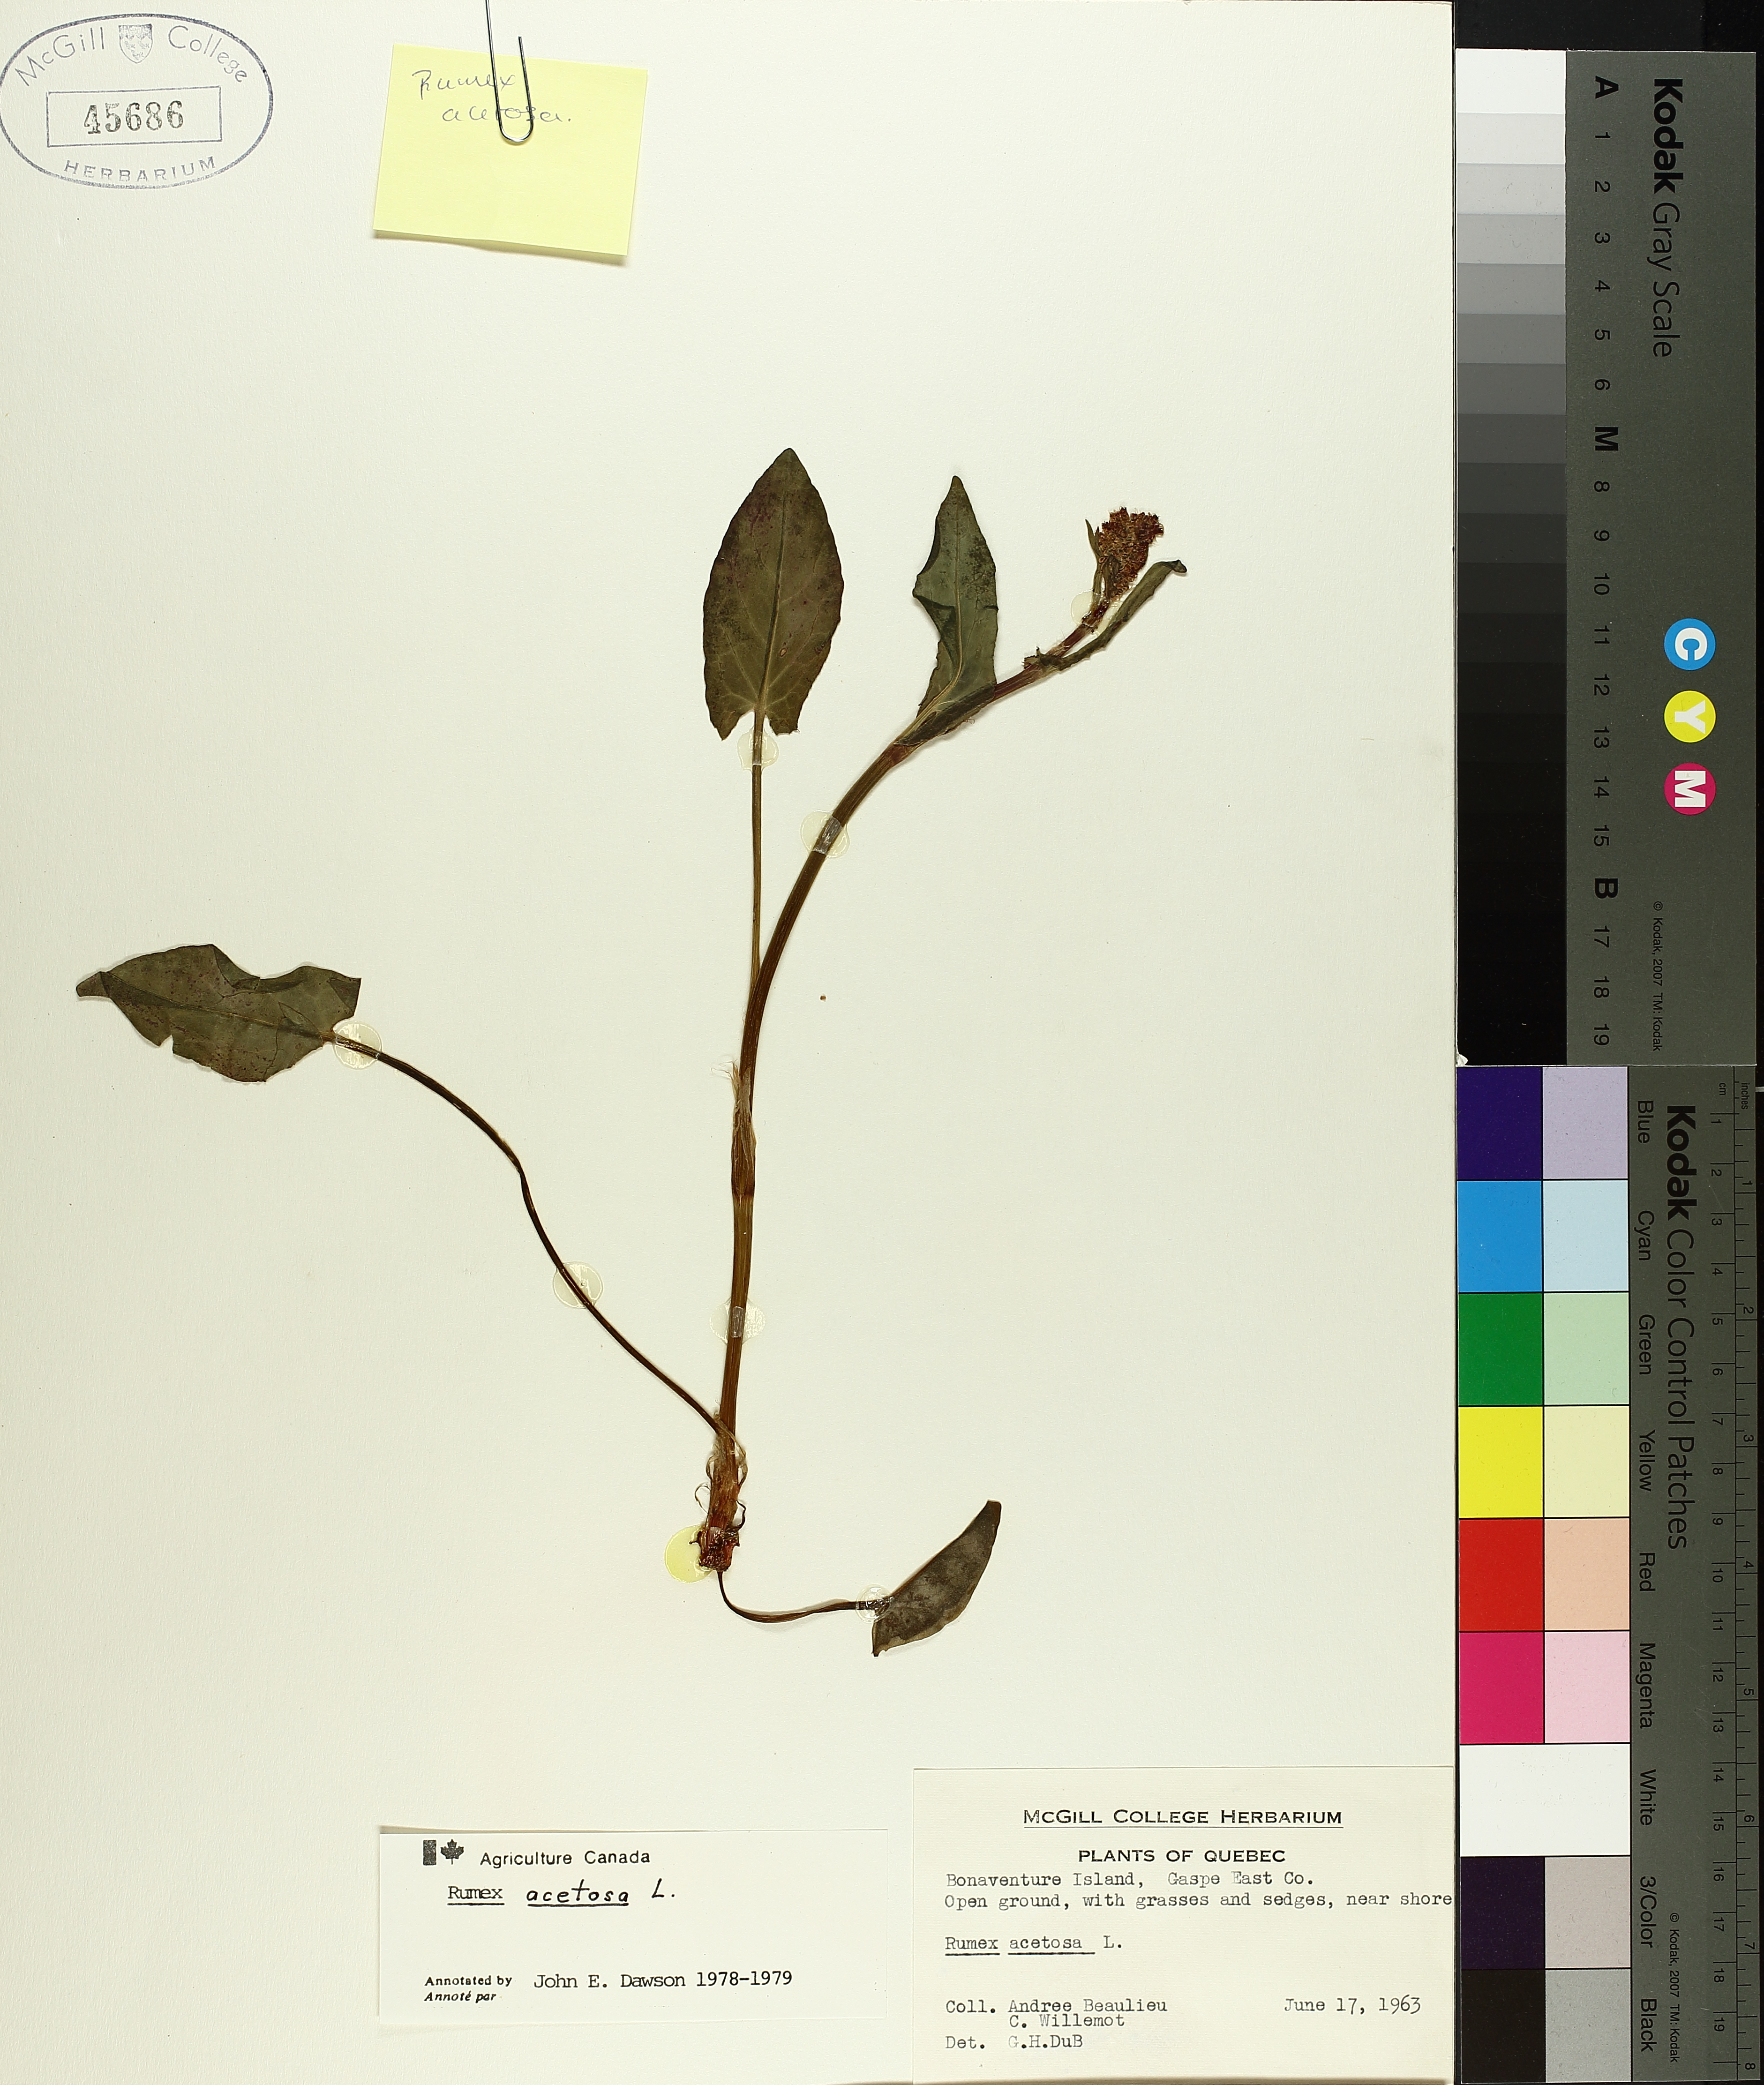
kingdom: Plantae
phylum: Tracheophyta
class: Magnoliopsida
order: Caryophyllales
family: Polygonaceae
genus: Rumex
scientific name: Rumex acetosa
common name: Garden sorrel
